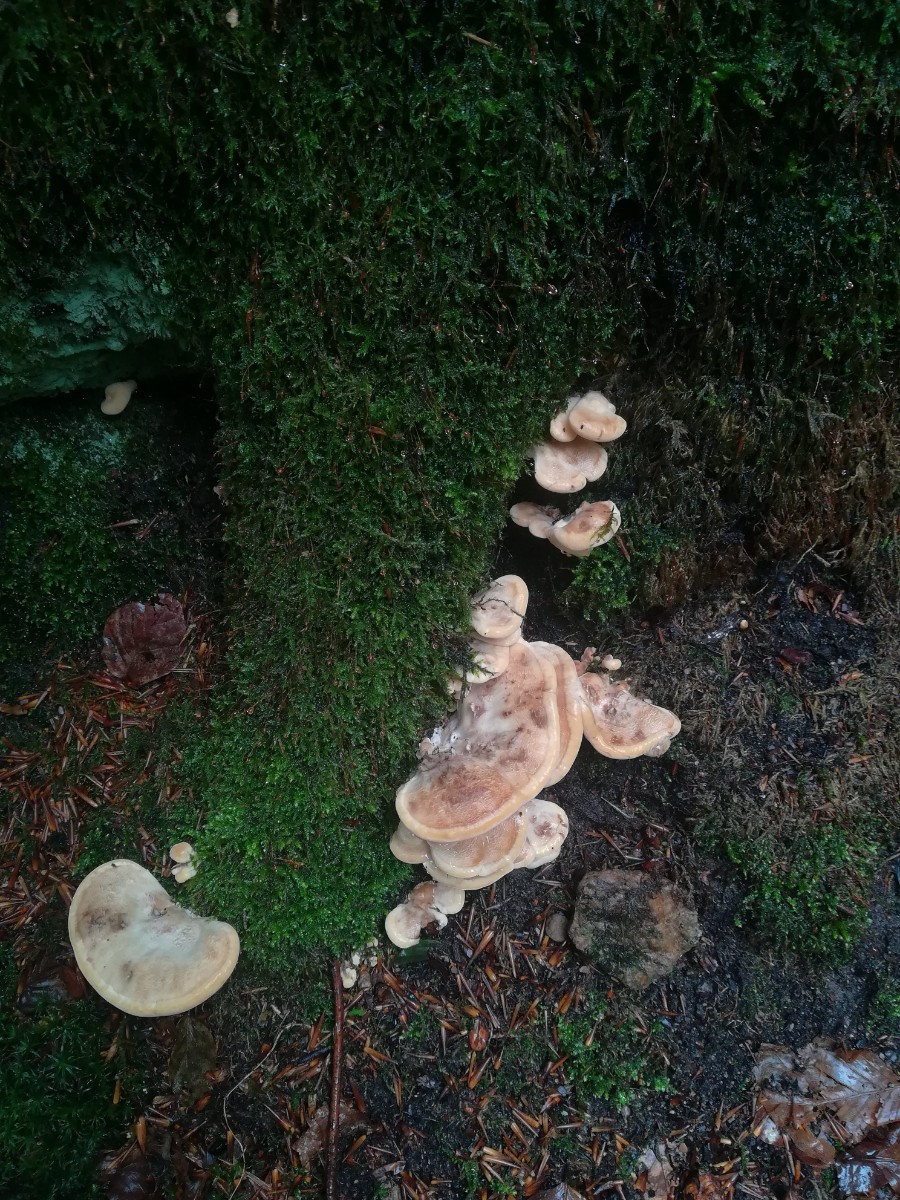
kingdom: Fungi
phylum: Basidiomycota
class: Agaricomycetes
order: Polyporales
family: Meripilaceae
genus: Meripilus
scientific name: Meripilus giganteus
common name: kæmpeporesvamp
